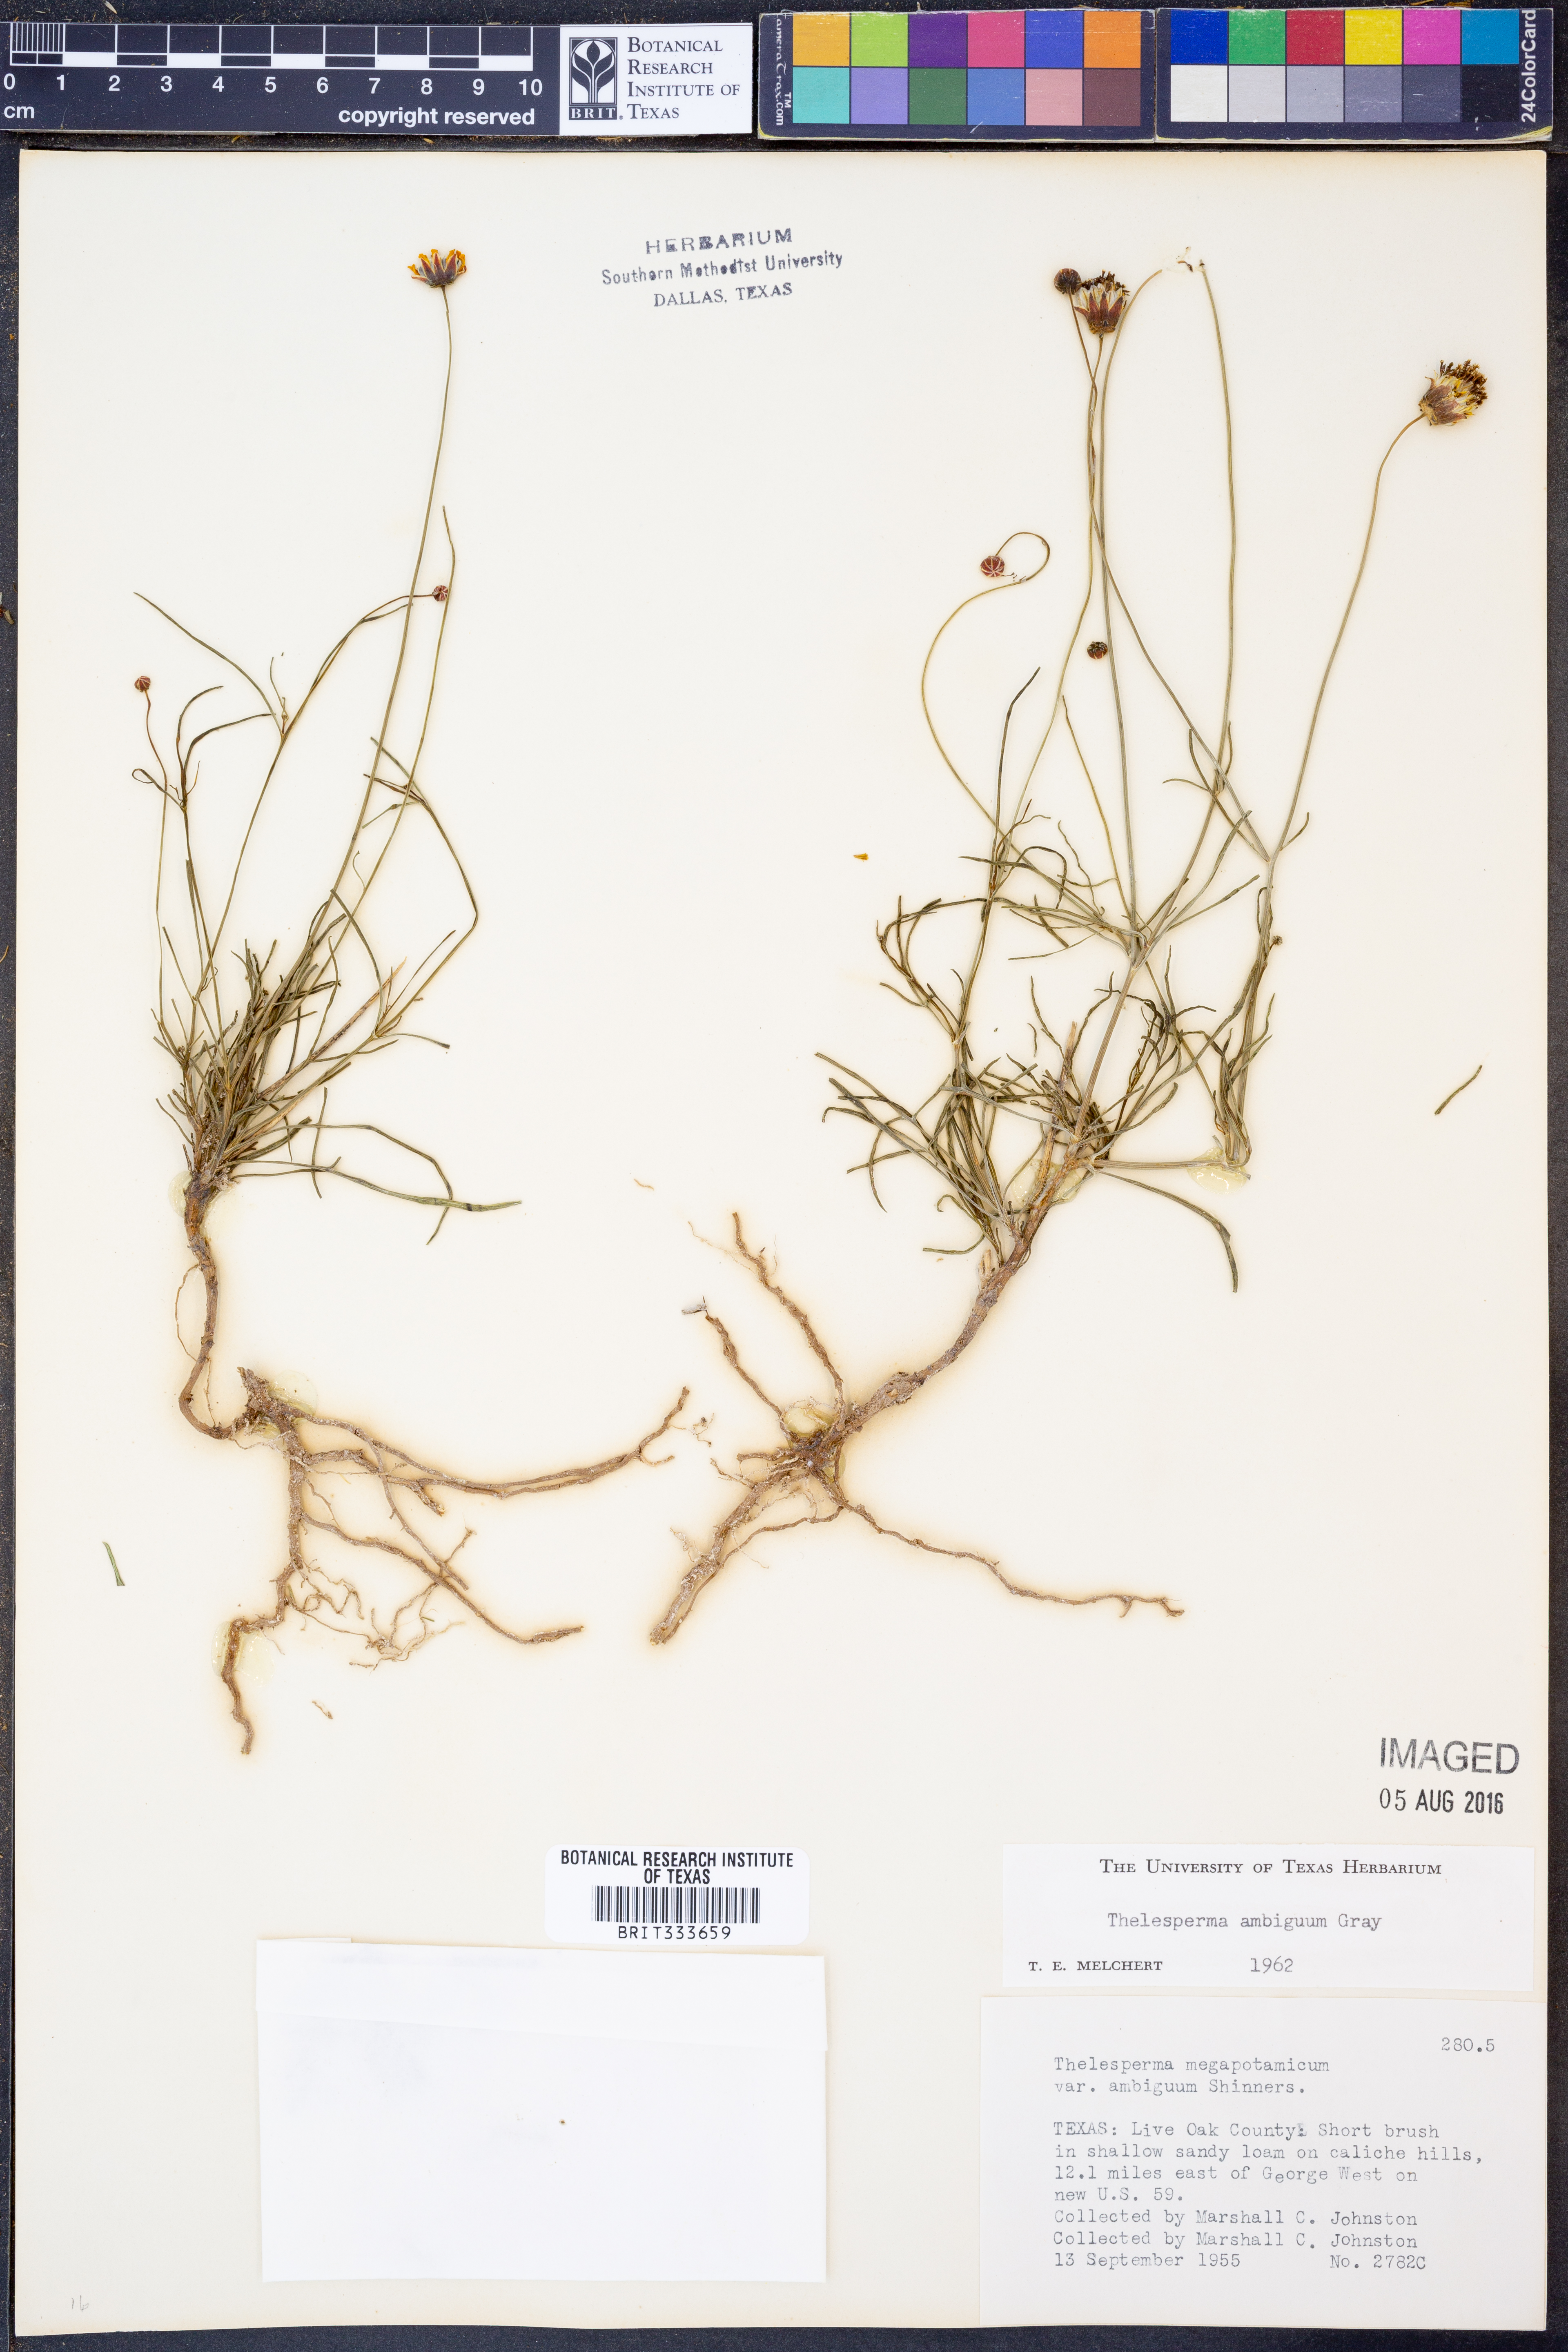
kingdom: Plantae
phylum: Tracheophyta
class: Magnoliopsida
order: Asterales
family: Asteraceae
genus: Thelesperma
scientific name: Thelesperma ambiguum
